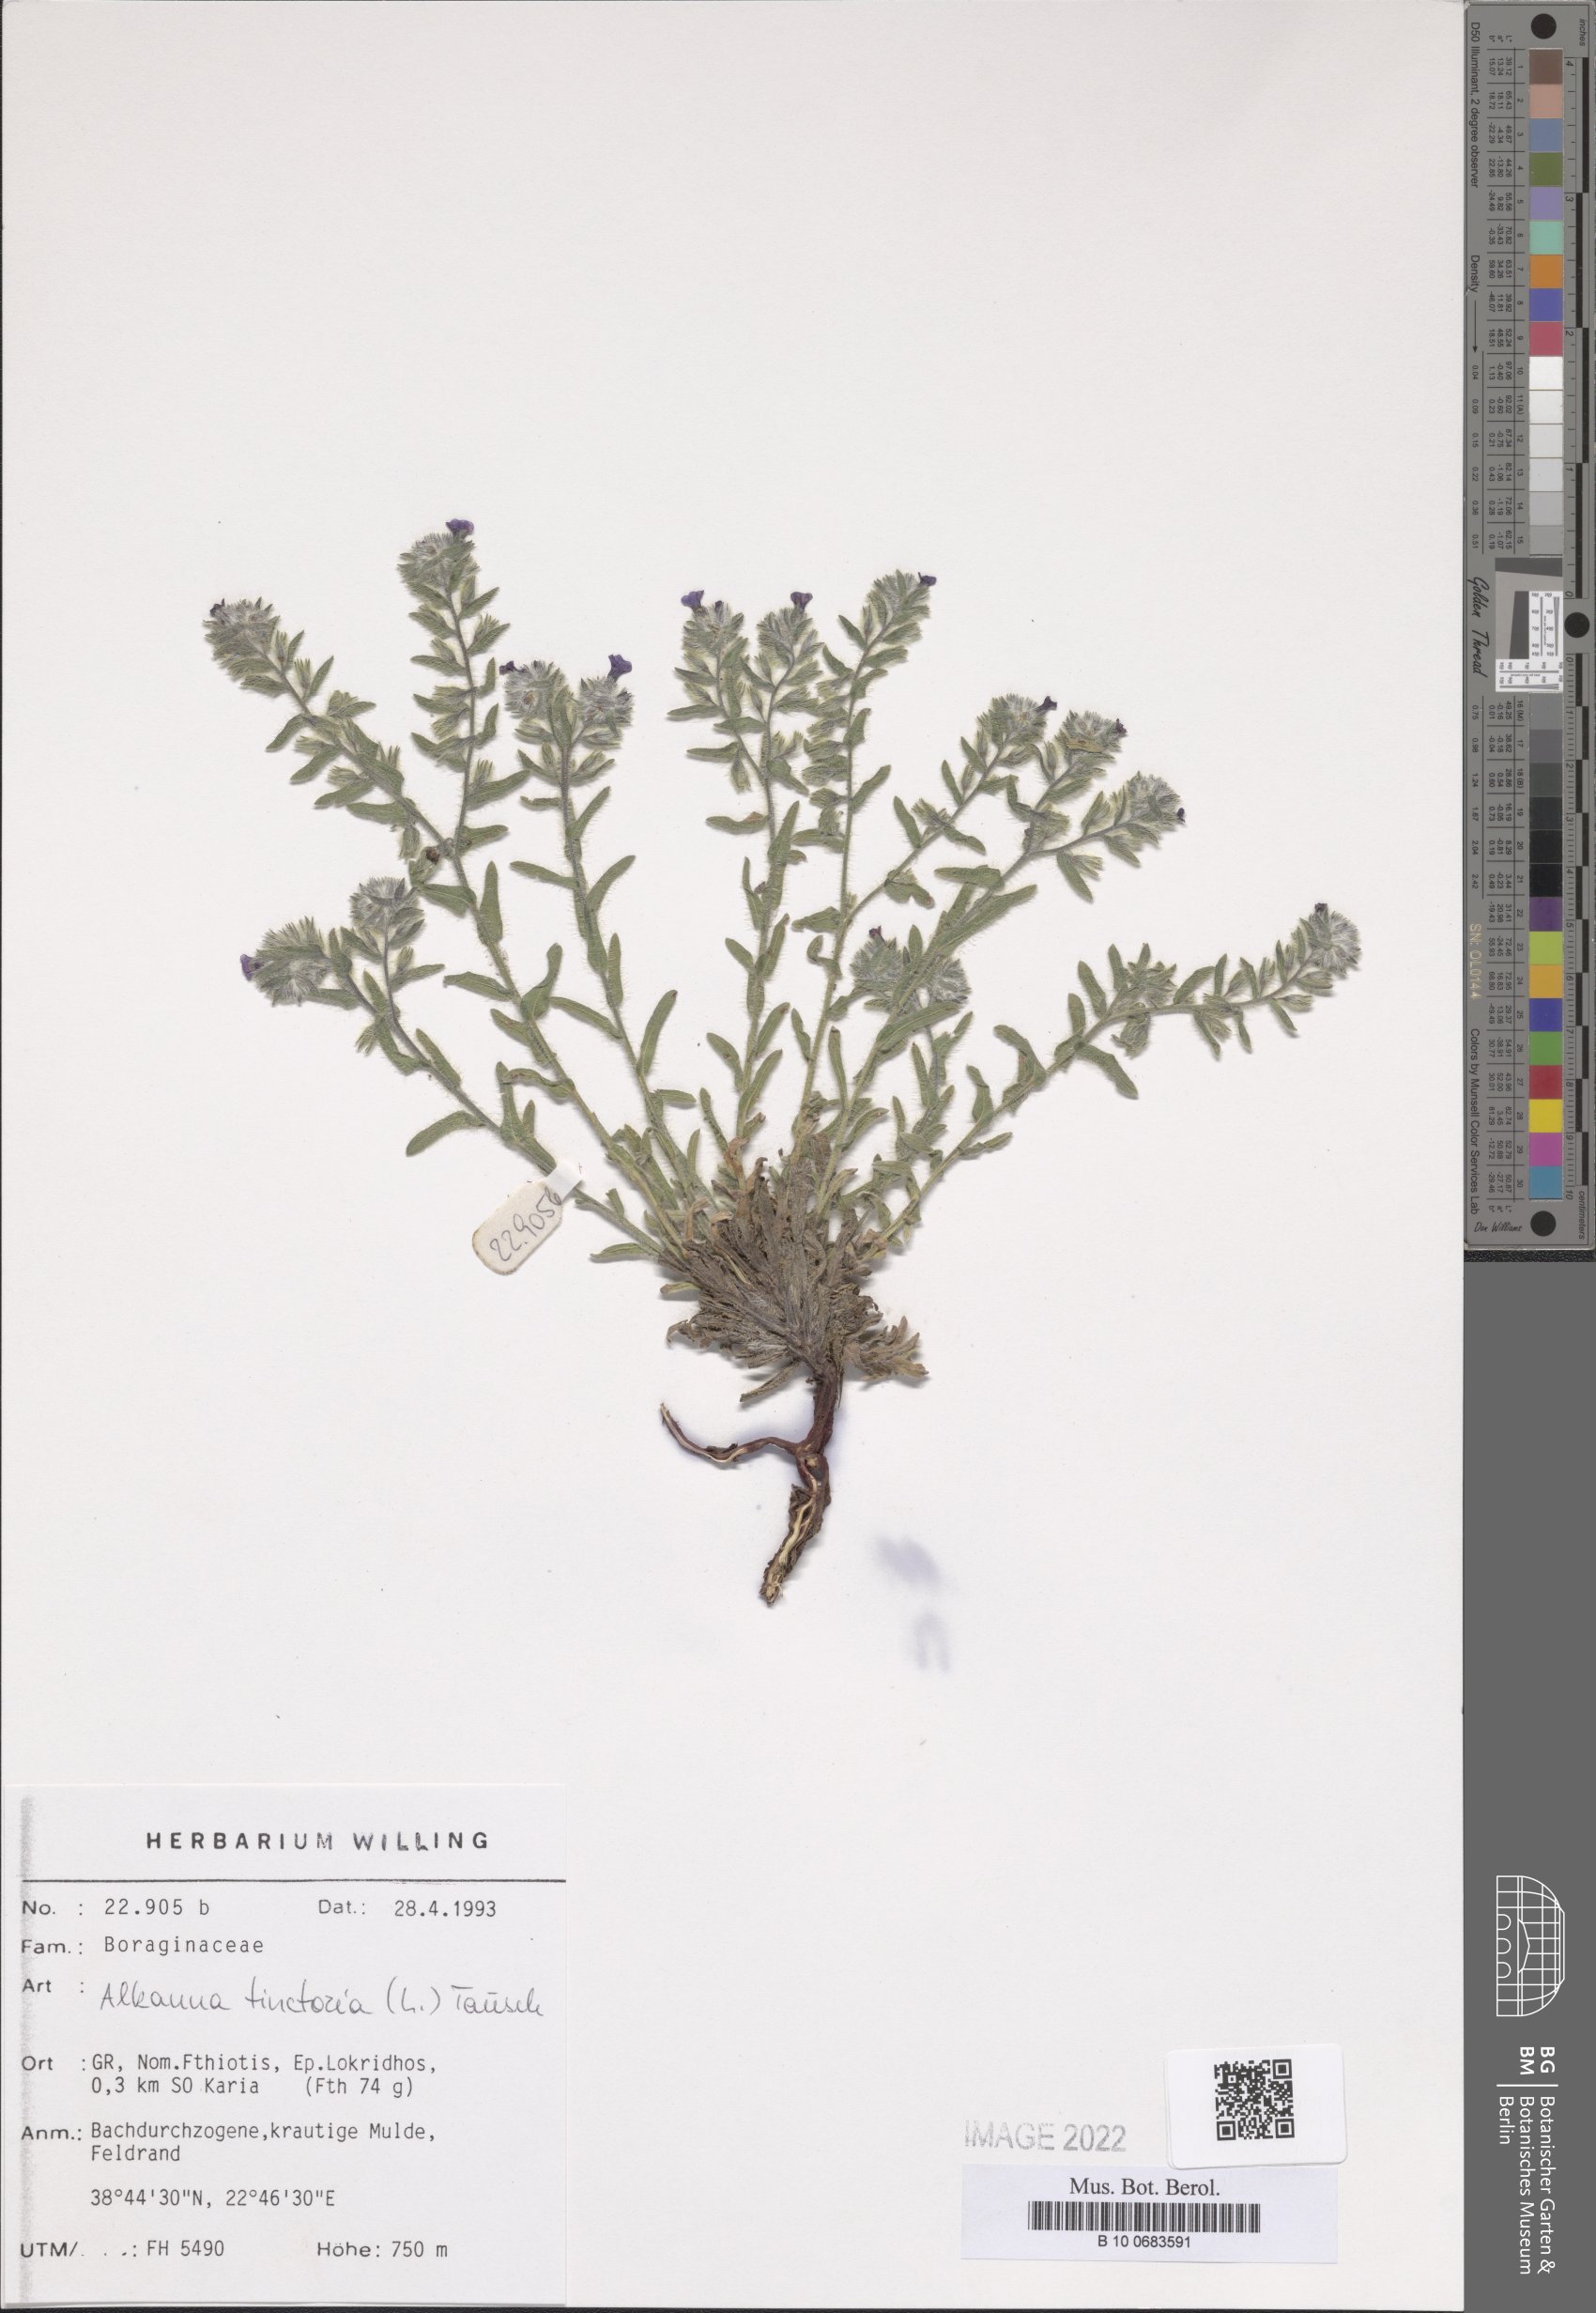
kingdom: Plantae
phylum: Tracheophyta
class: Magnoliopsida
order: Boraginales
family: Boraginaceae
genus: Alkanna
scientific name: Alkanna tinctoria
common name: Dyer's-alkanet
